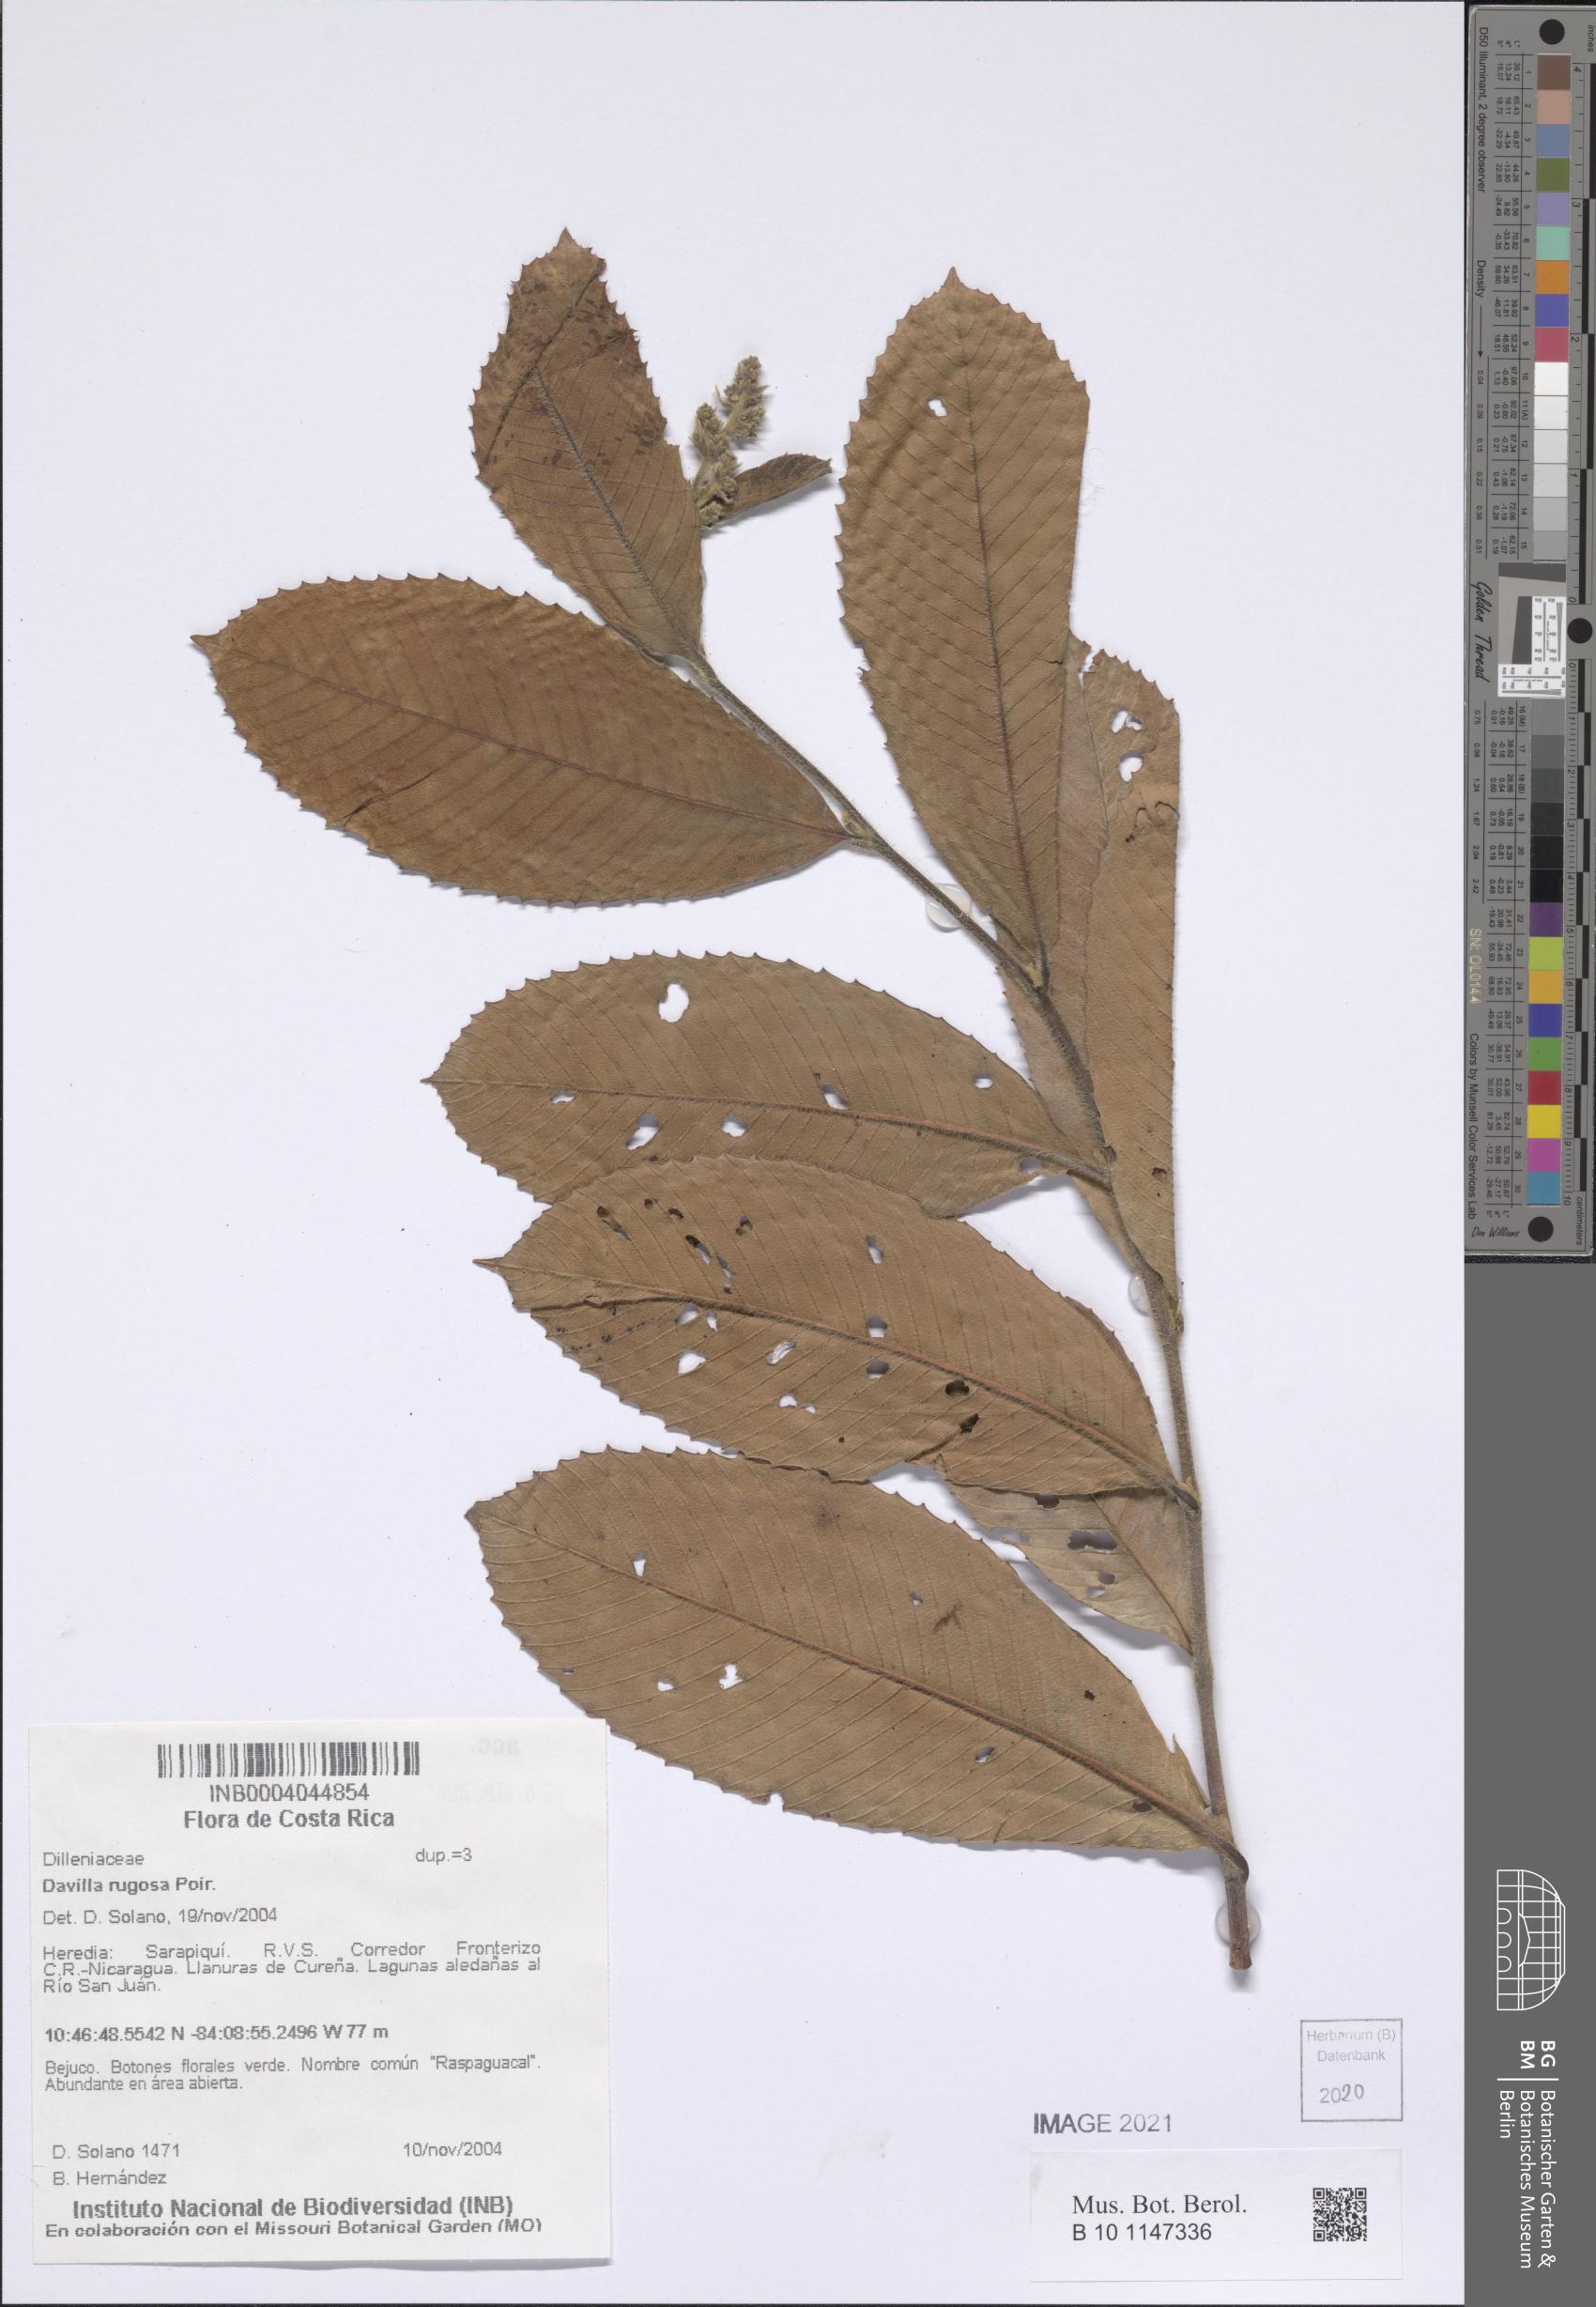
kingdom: Plantae
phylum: Tracheophyta
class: Magnoliopsida
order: Dilleniales
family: Dilleniaceae
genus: Davilla
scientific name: Davilla rugosa
